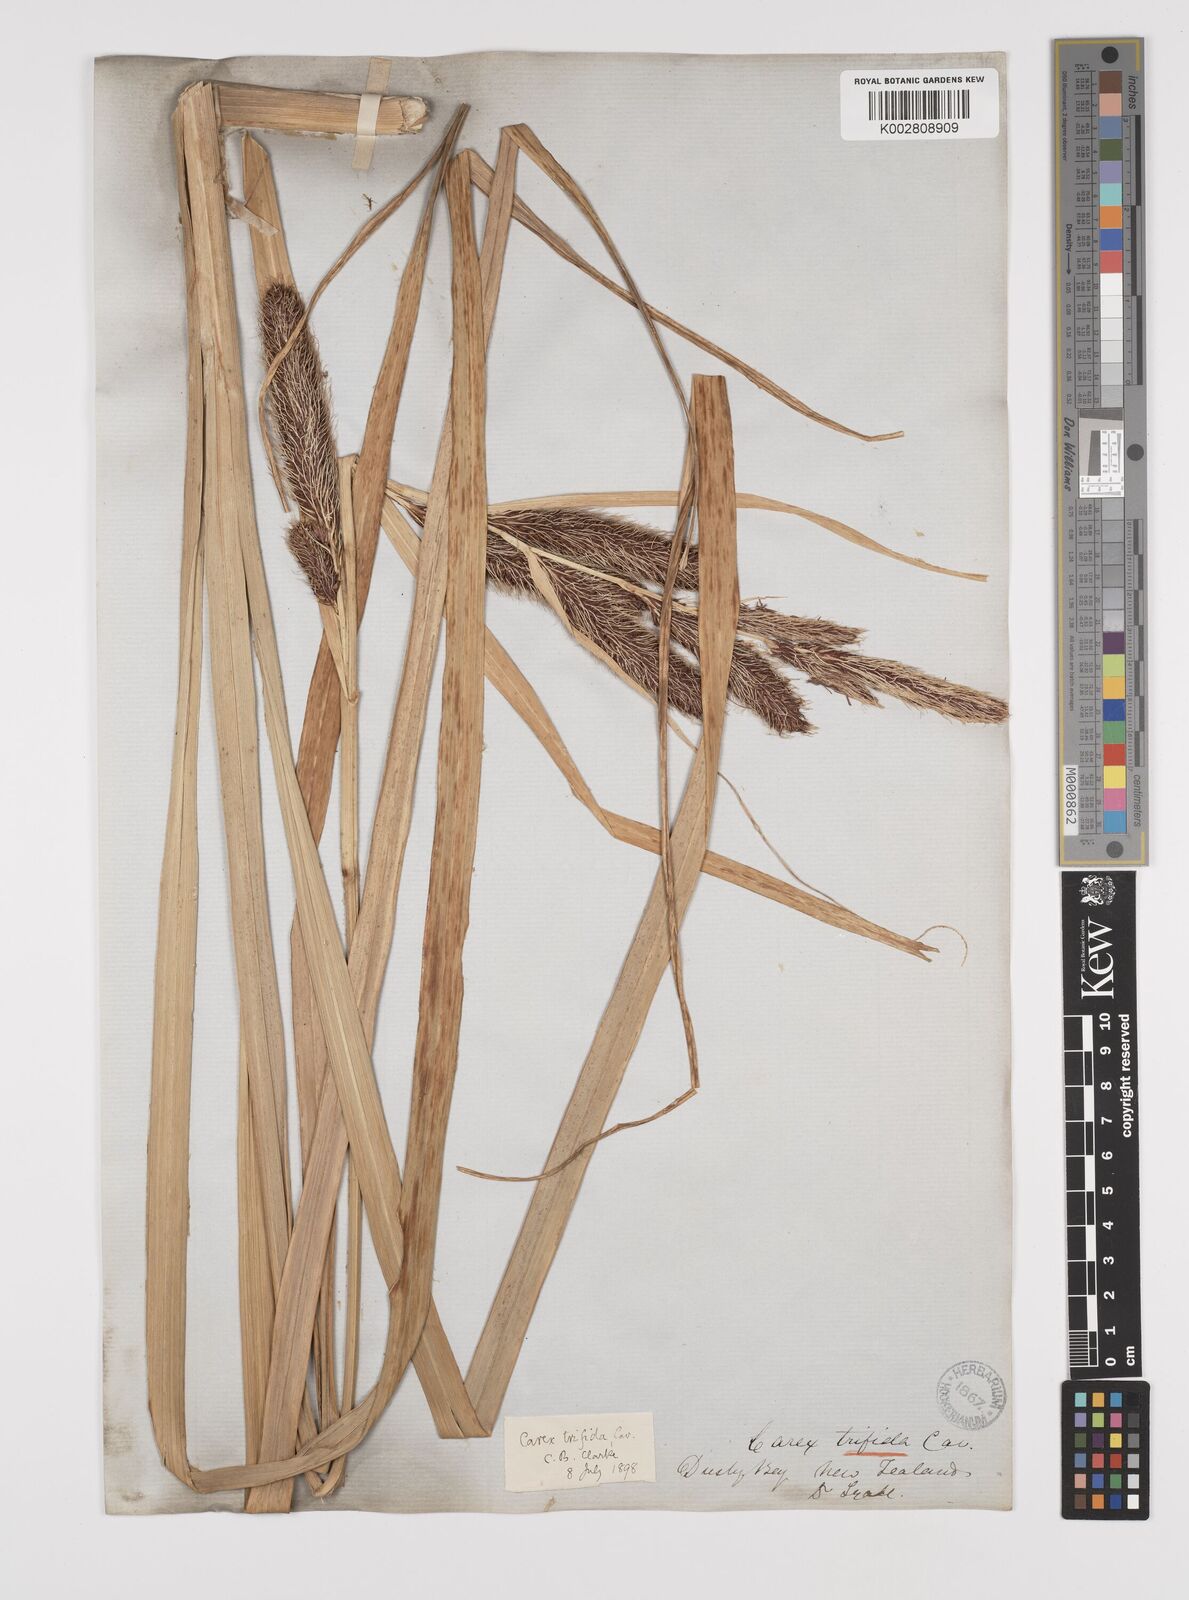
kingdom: Plantae
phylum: Tracheophyta
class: Liliopsida
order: Poales
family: Cyperaceae
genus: Carex
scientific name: Carex trifida
